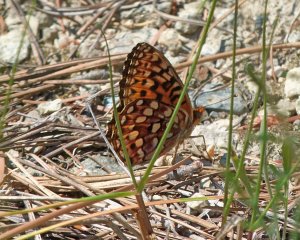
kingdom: Animalia
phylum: Arthropoda
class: Insecta
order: Lepidoptera
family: Nymphalidae
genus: Speyeria
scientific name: Speyeria zerene
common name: Zerene Fritillary
